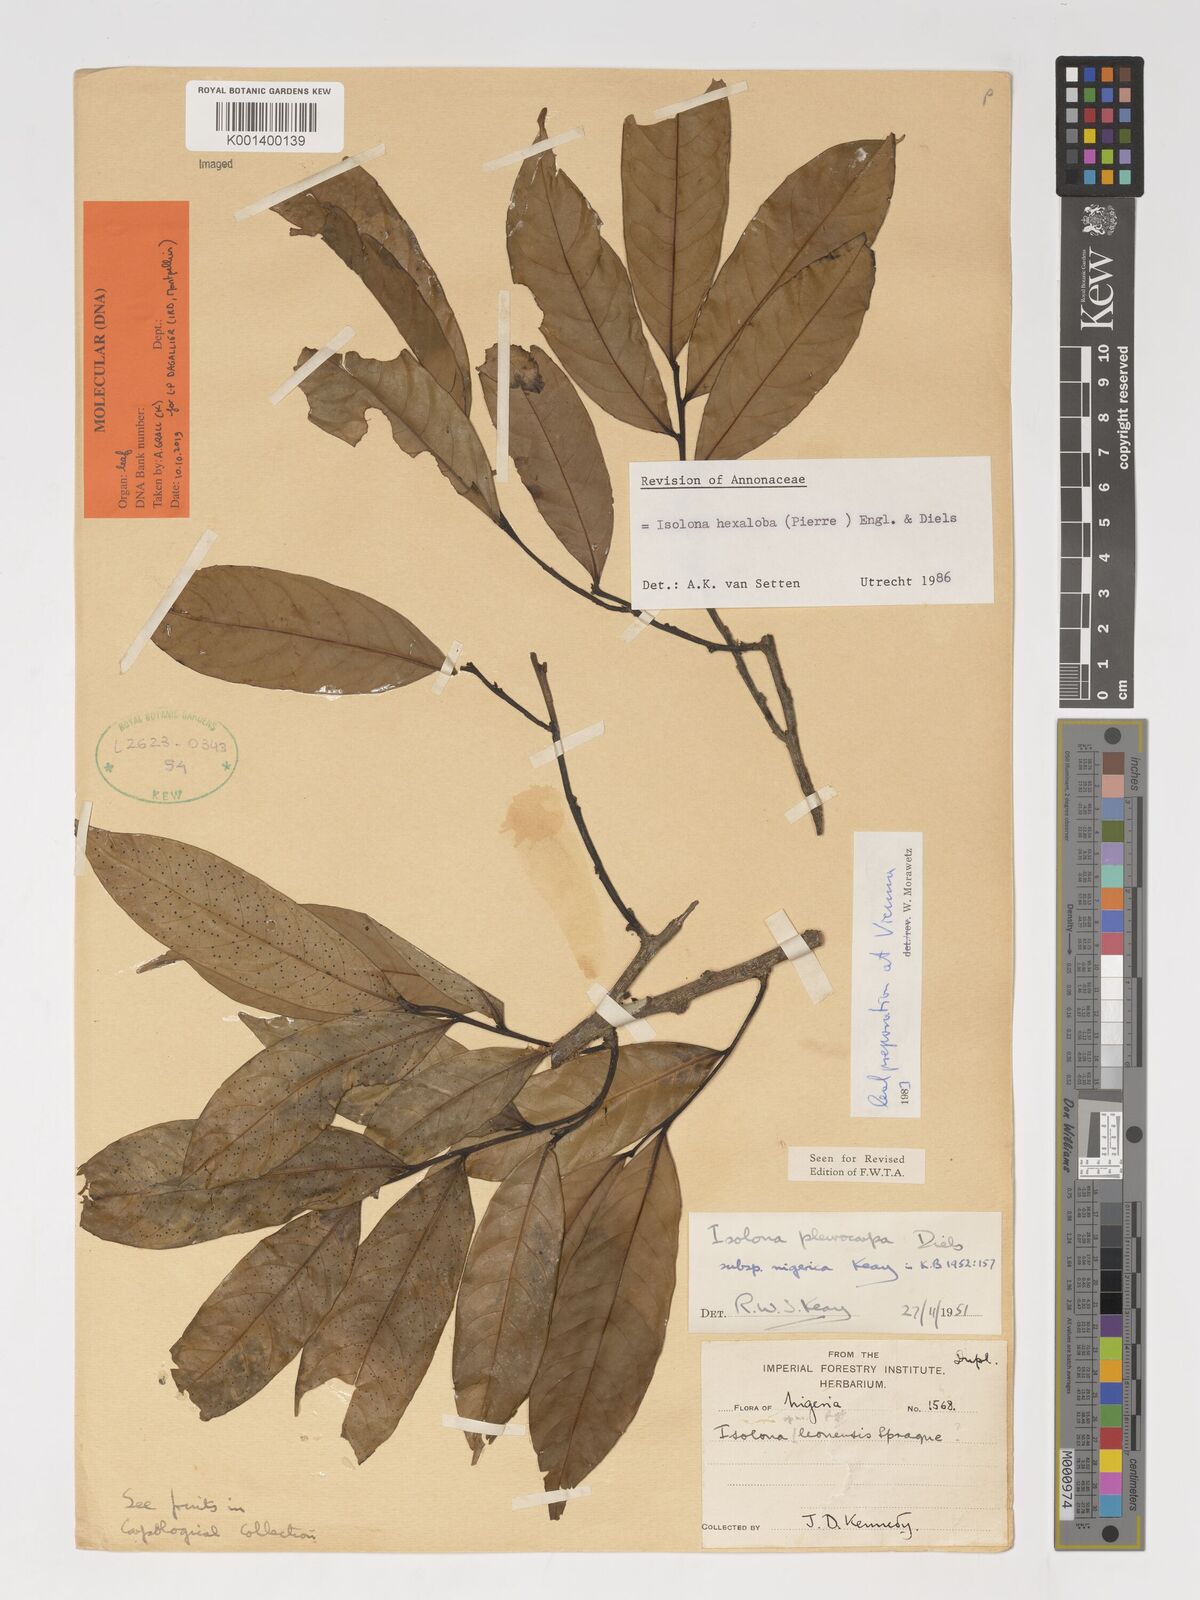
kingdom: Plantae
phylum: Tracheophyta
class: Magnoliopsida
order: Magnoliales
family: Annonaceae
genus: Isolona
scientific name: Isolona hexaloba
